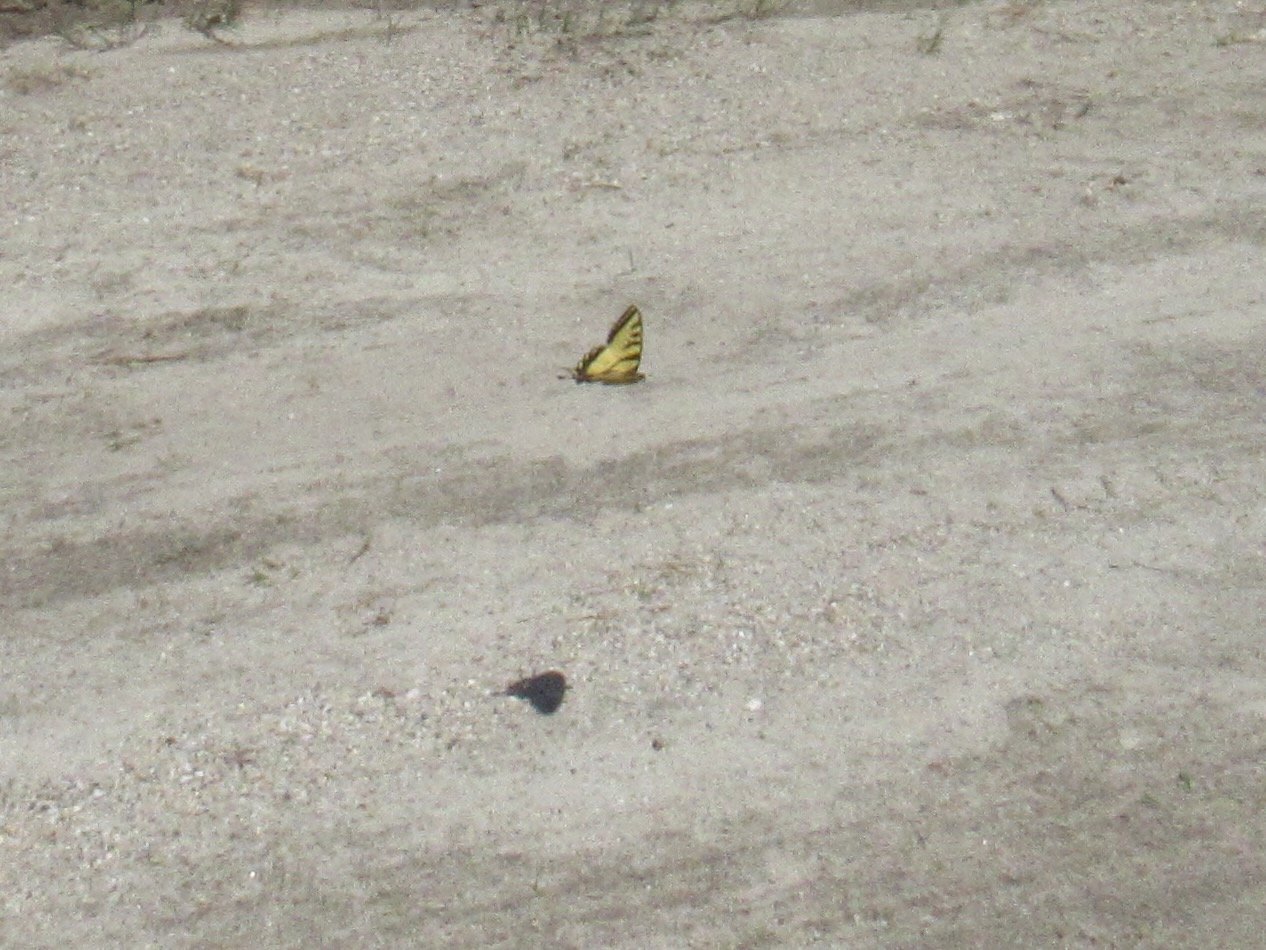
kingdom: Animalia
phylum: Arthropoda
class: Insecta
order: Lepidoptera
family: Papilionidae
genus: Pterourus
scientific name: Pterourus canadensis
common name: Canadian Tiger Swallowtail
